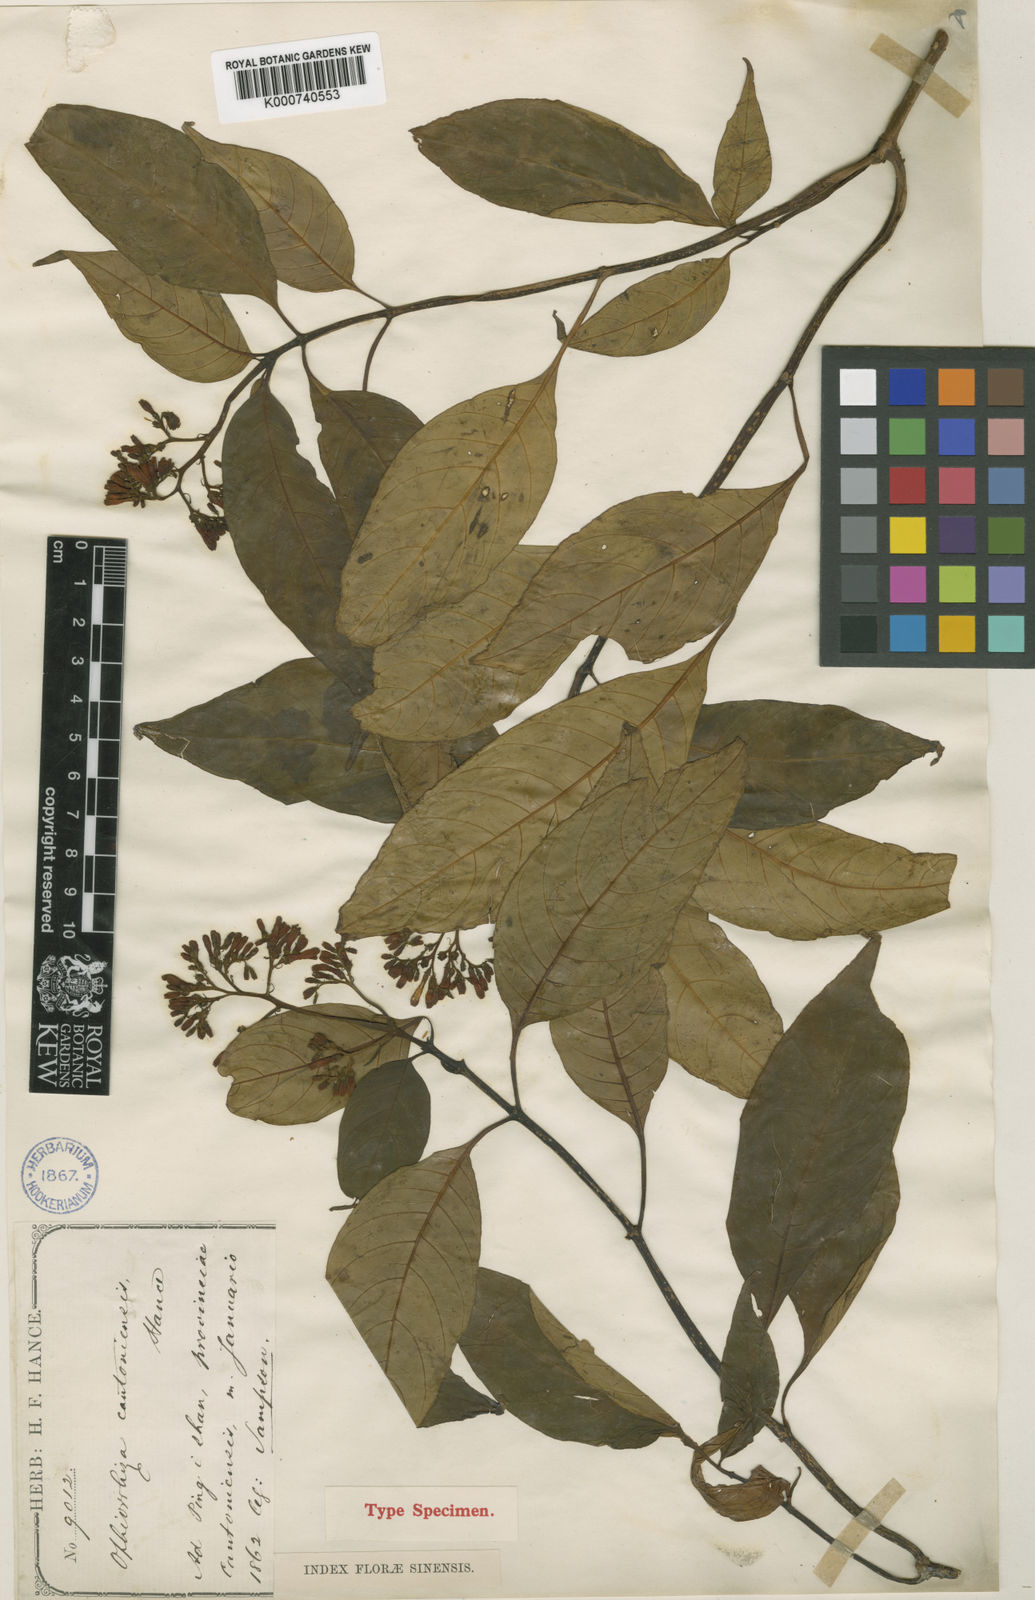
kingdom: Plantae
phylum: Tracheophyta
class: Magnoliopsida
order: Gentianales
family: Rubiaceae
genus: Ophiorrhiza
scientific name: Ophiorrhiza cantonensis
